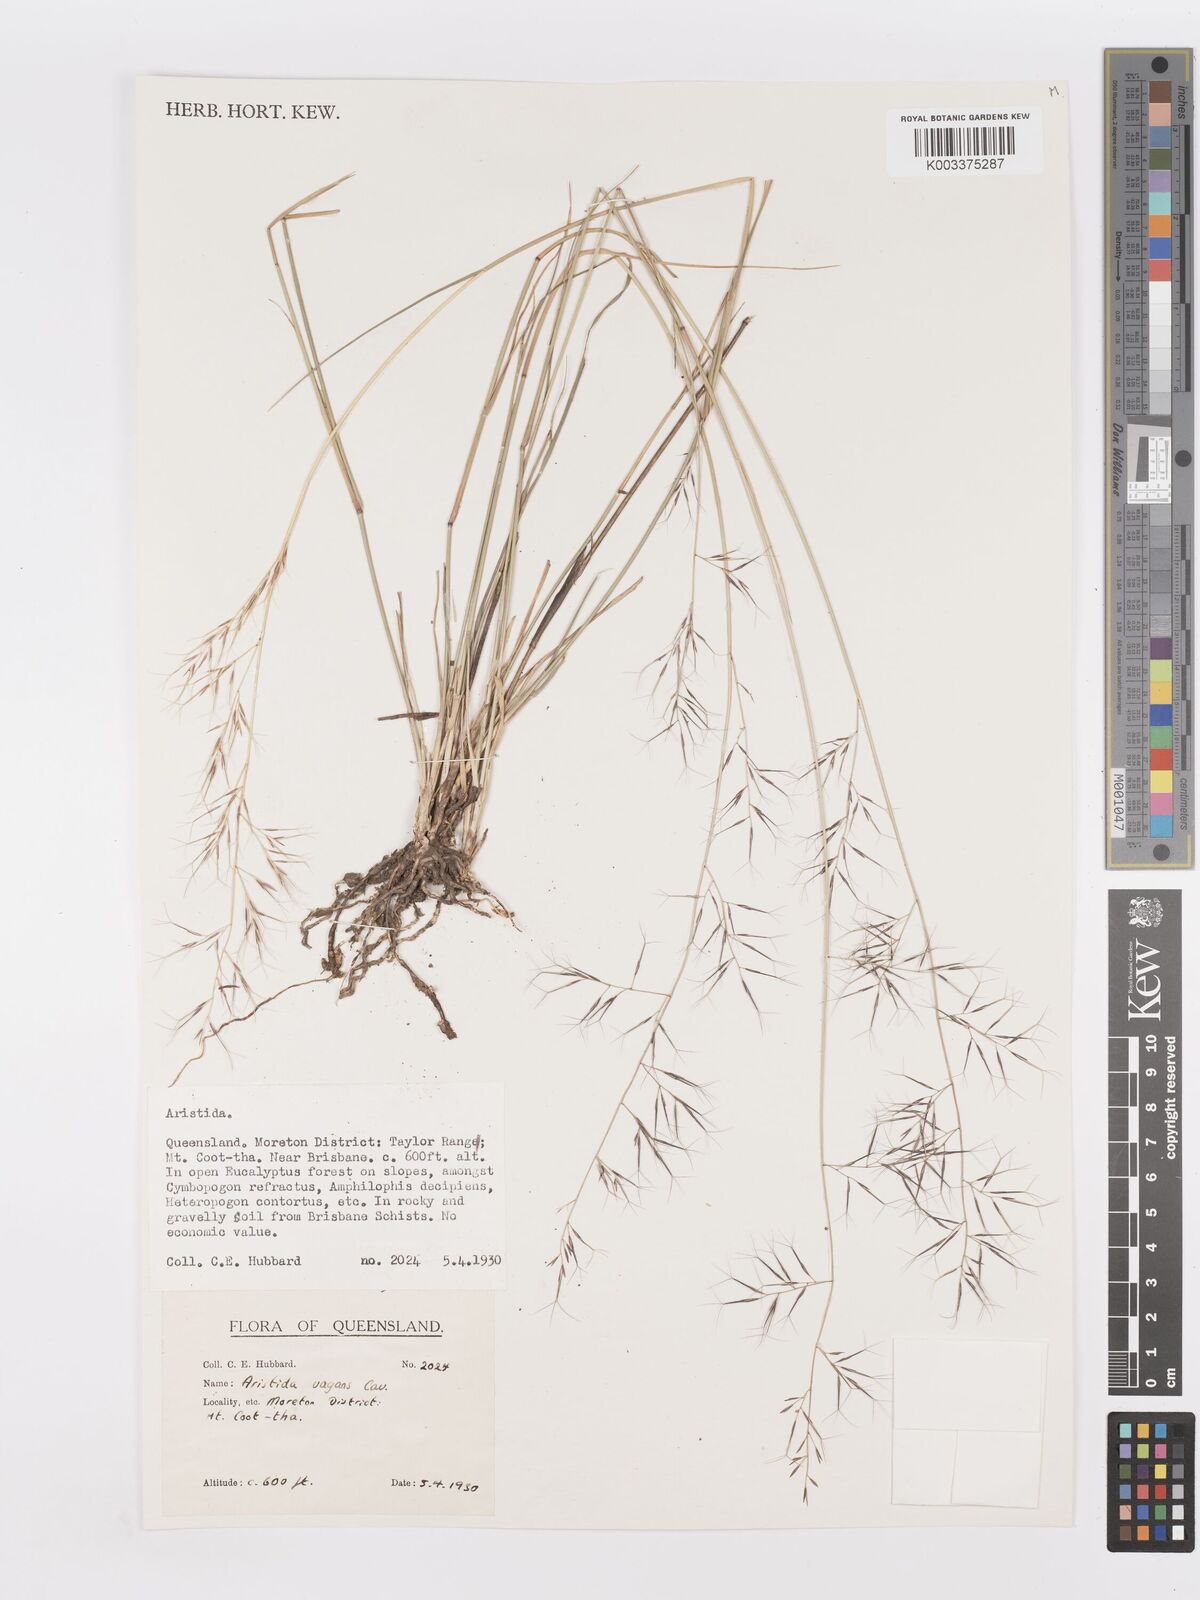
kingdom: Plantae
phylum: Tracheophyta
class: Liliopsida
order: Poales
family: Poaceae
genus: Aristida
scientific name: Aristida vagans
